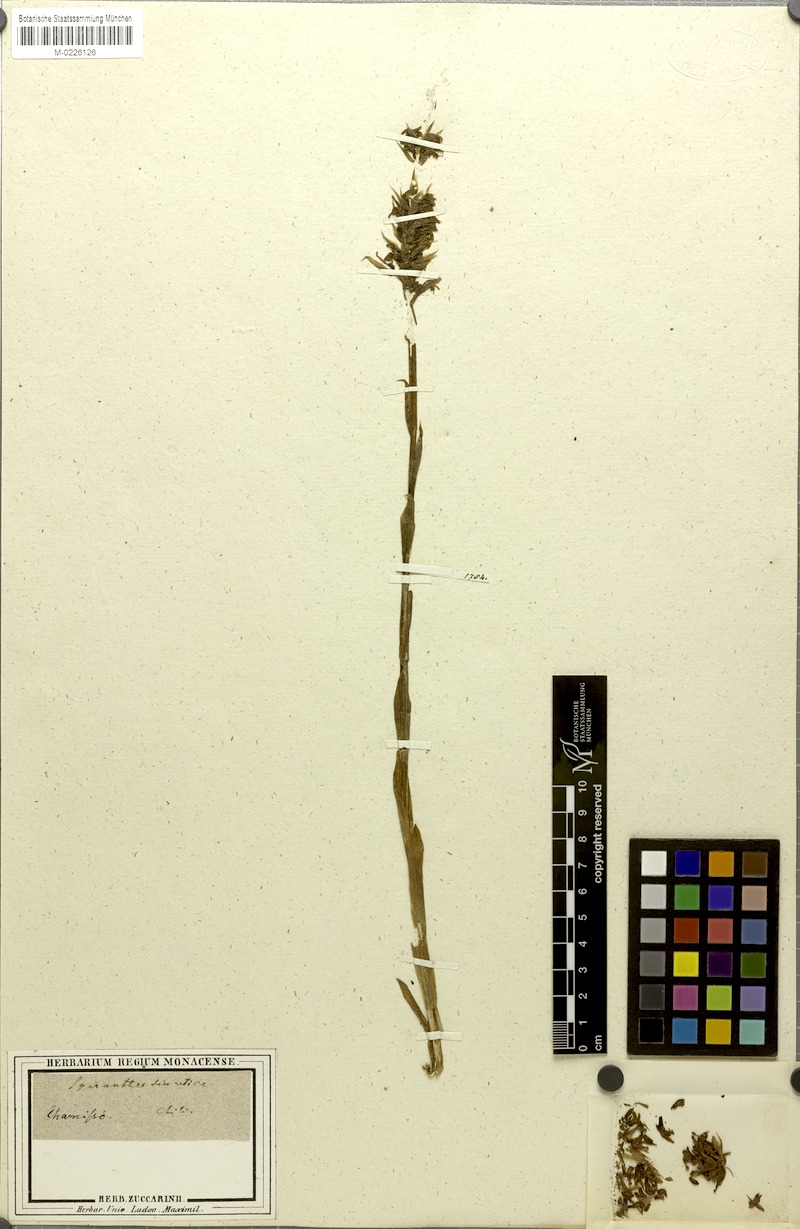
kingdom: Plantae
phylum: Tracheophyta
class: Liliopsida
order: Asparagales
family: Orchidaceae
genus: Brachystele
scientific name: Brachystele unilateralis
